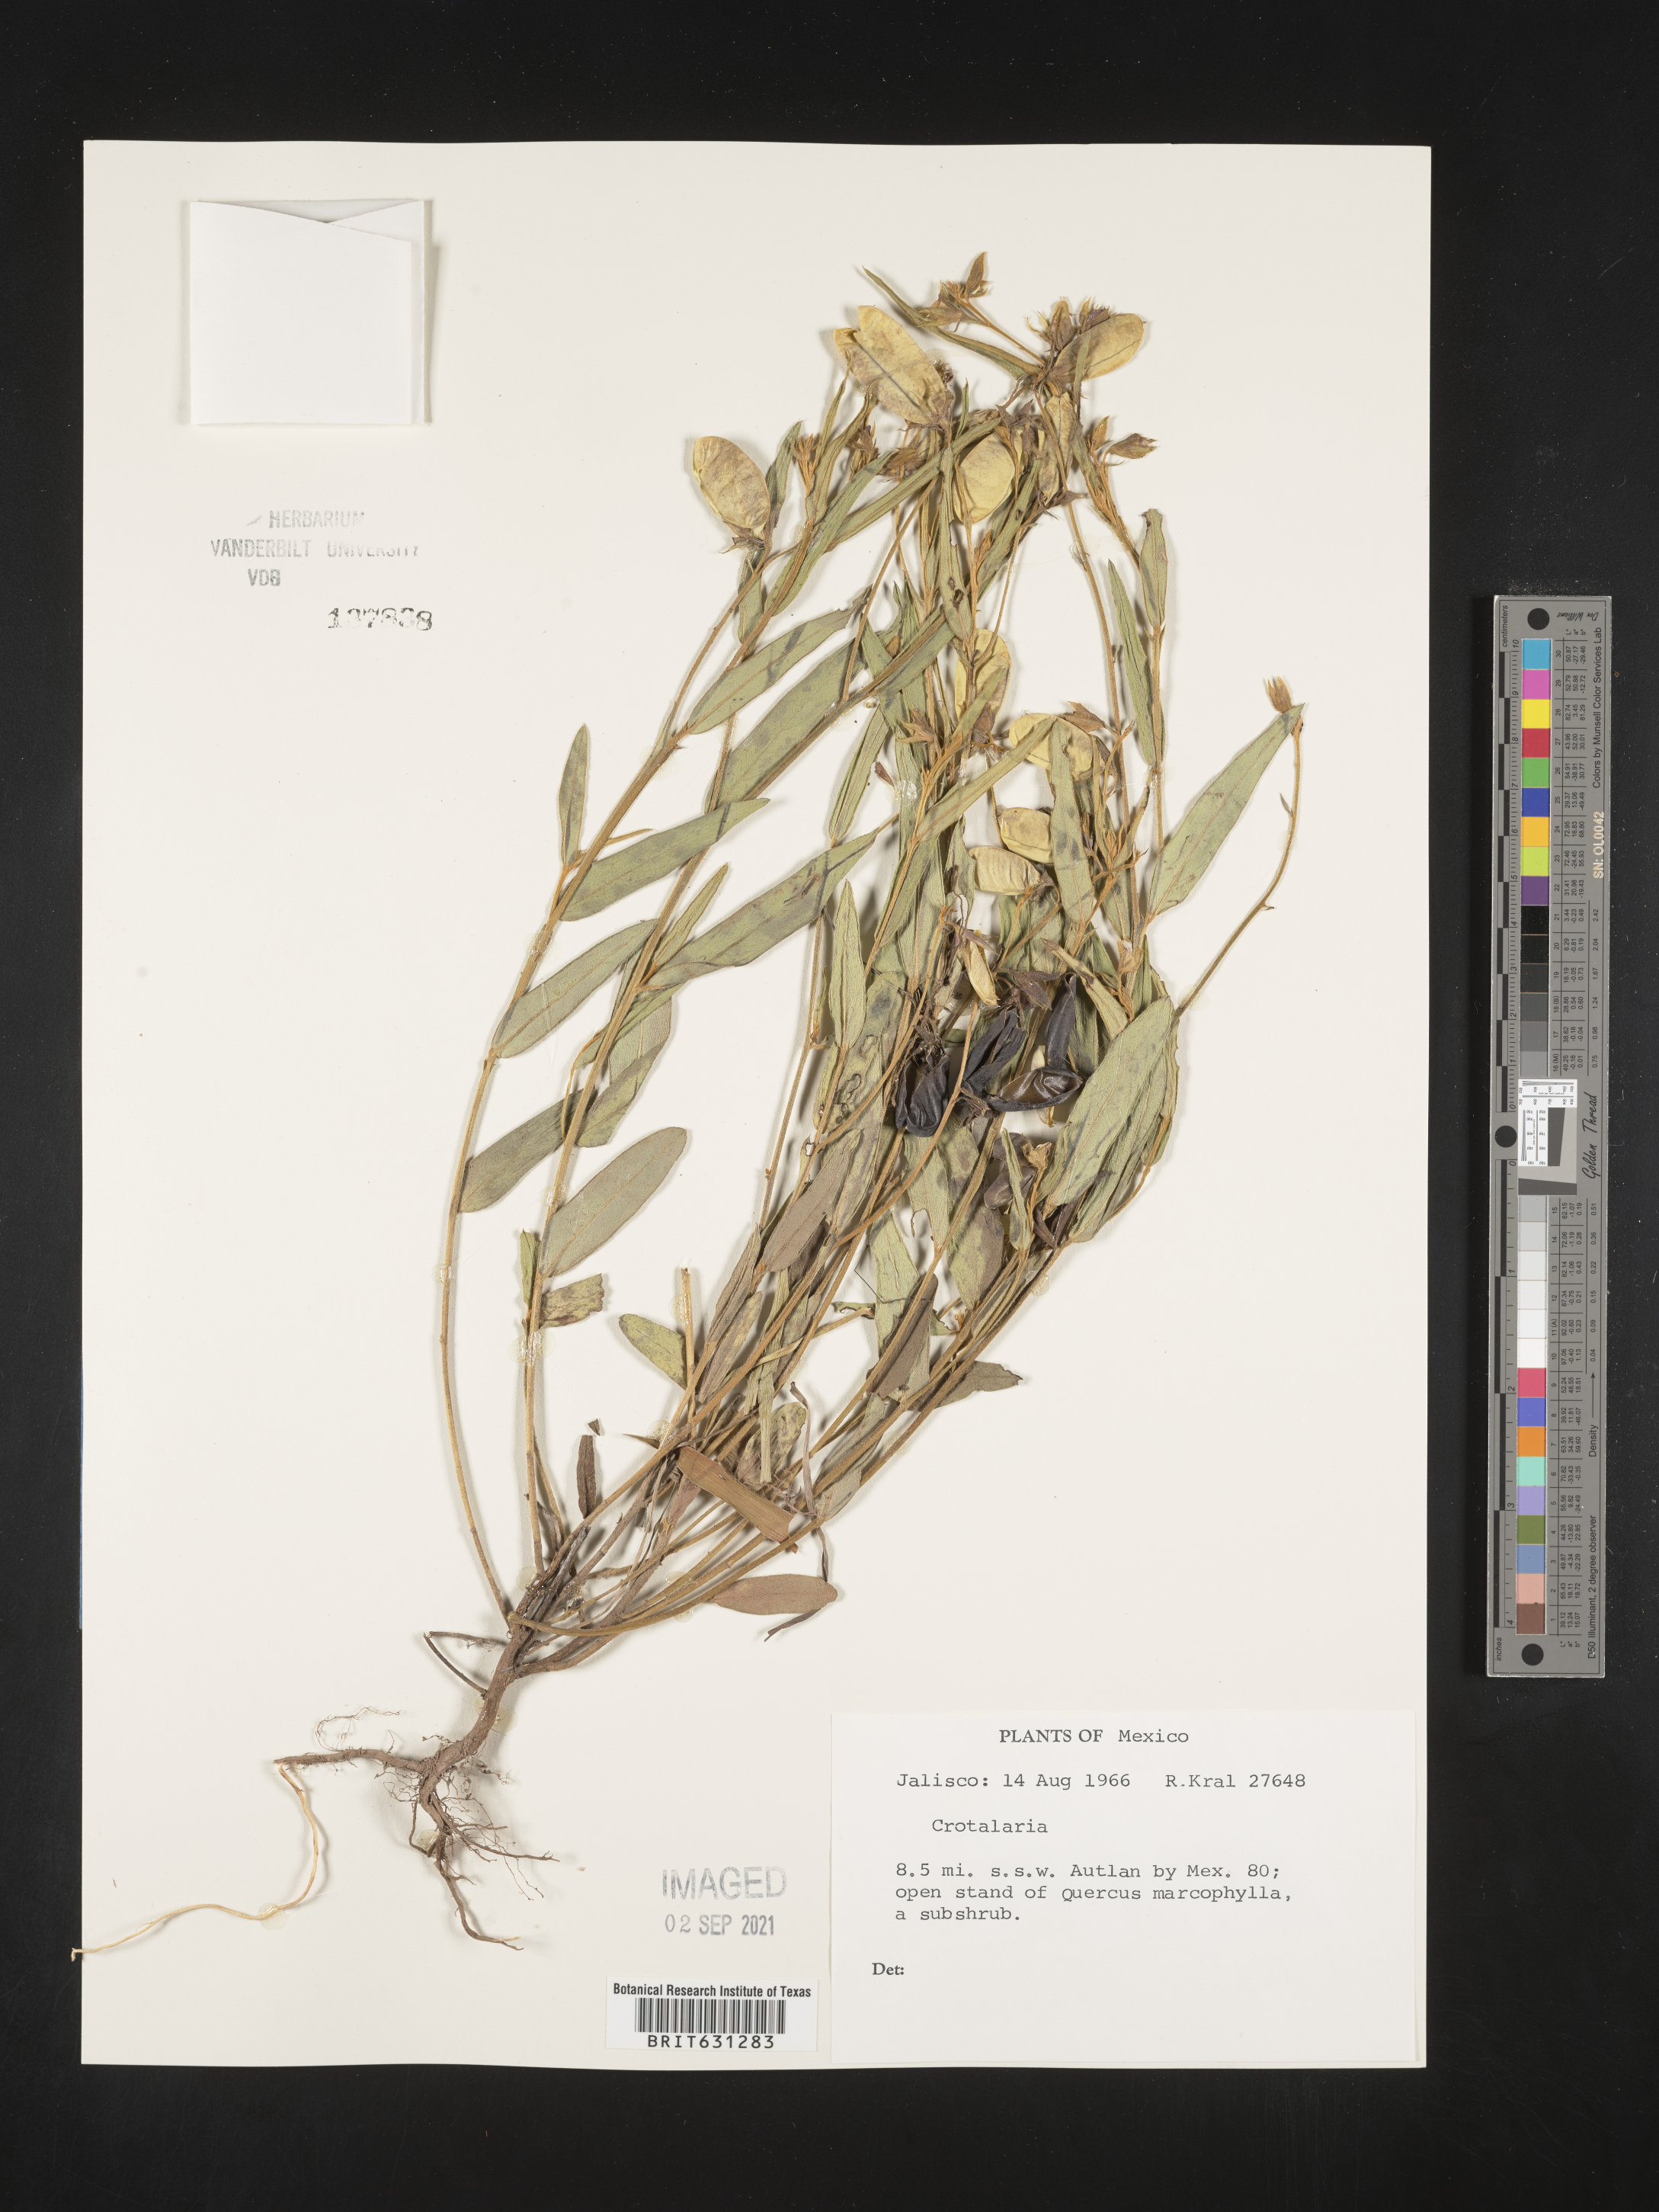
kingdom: Plantae
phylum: Tracheophyta
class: Magnoliopsida
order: Fabales
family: Fabaceae
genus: Crotalaria
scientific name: Crotalaria
